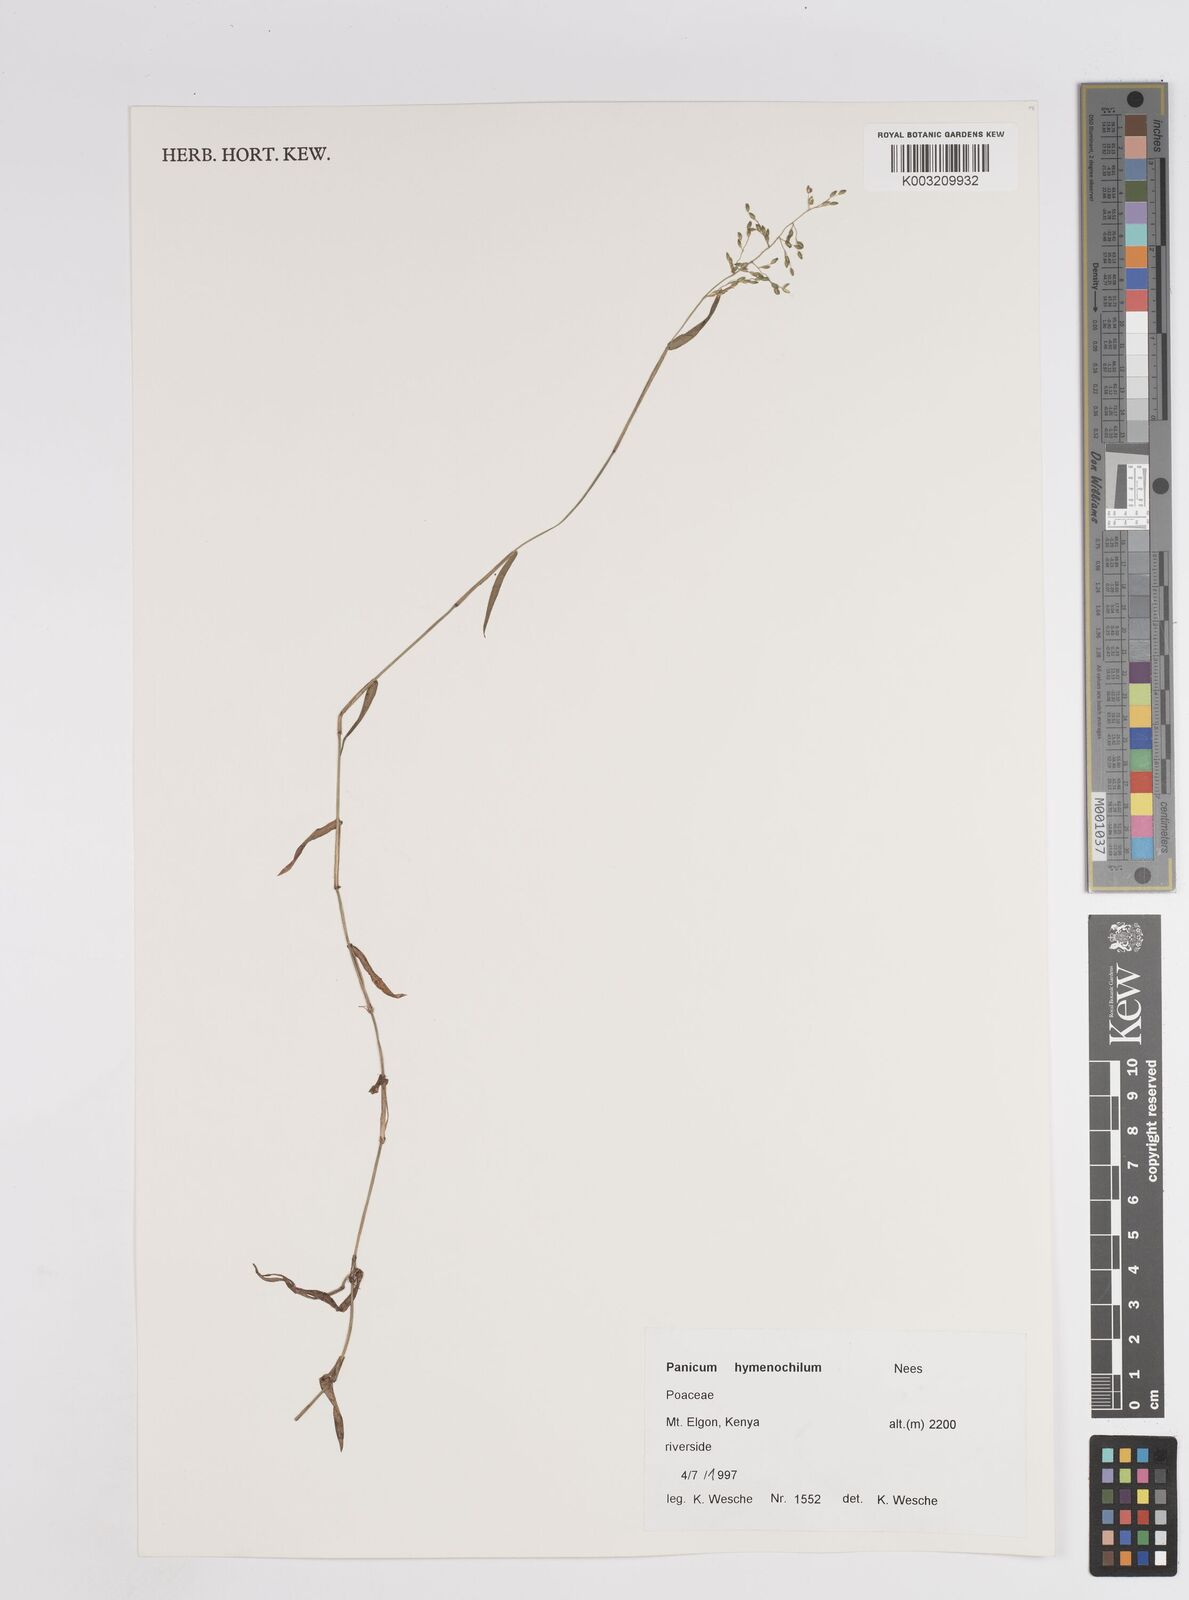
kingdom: Plantae
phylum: Tracheophyta
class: Liliopsida
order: Poales
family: Poaceae
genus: Adenochloa
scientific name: Adenochloa hymeniochila
